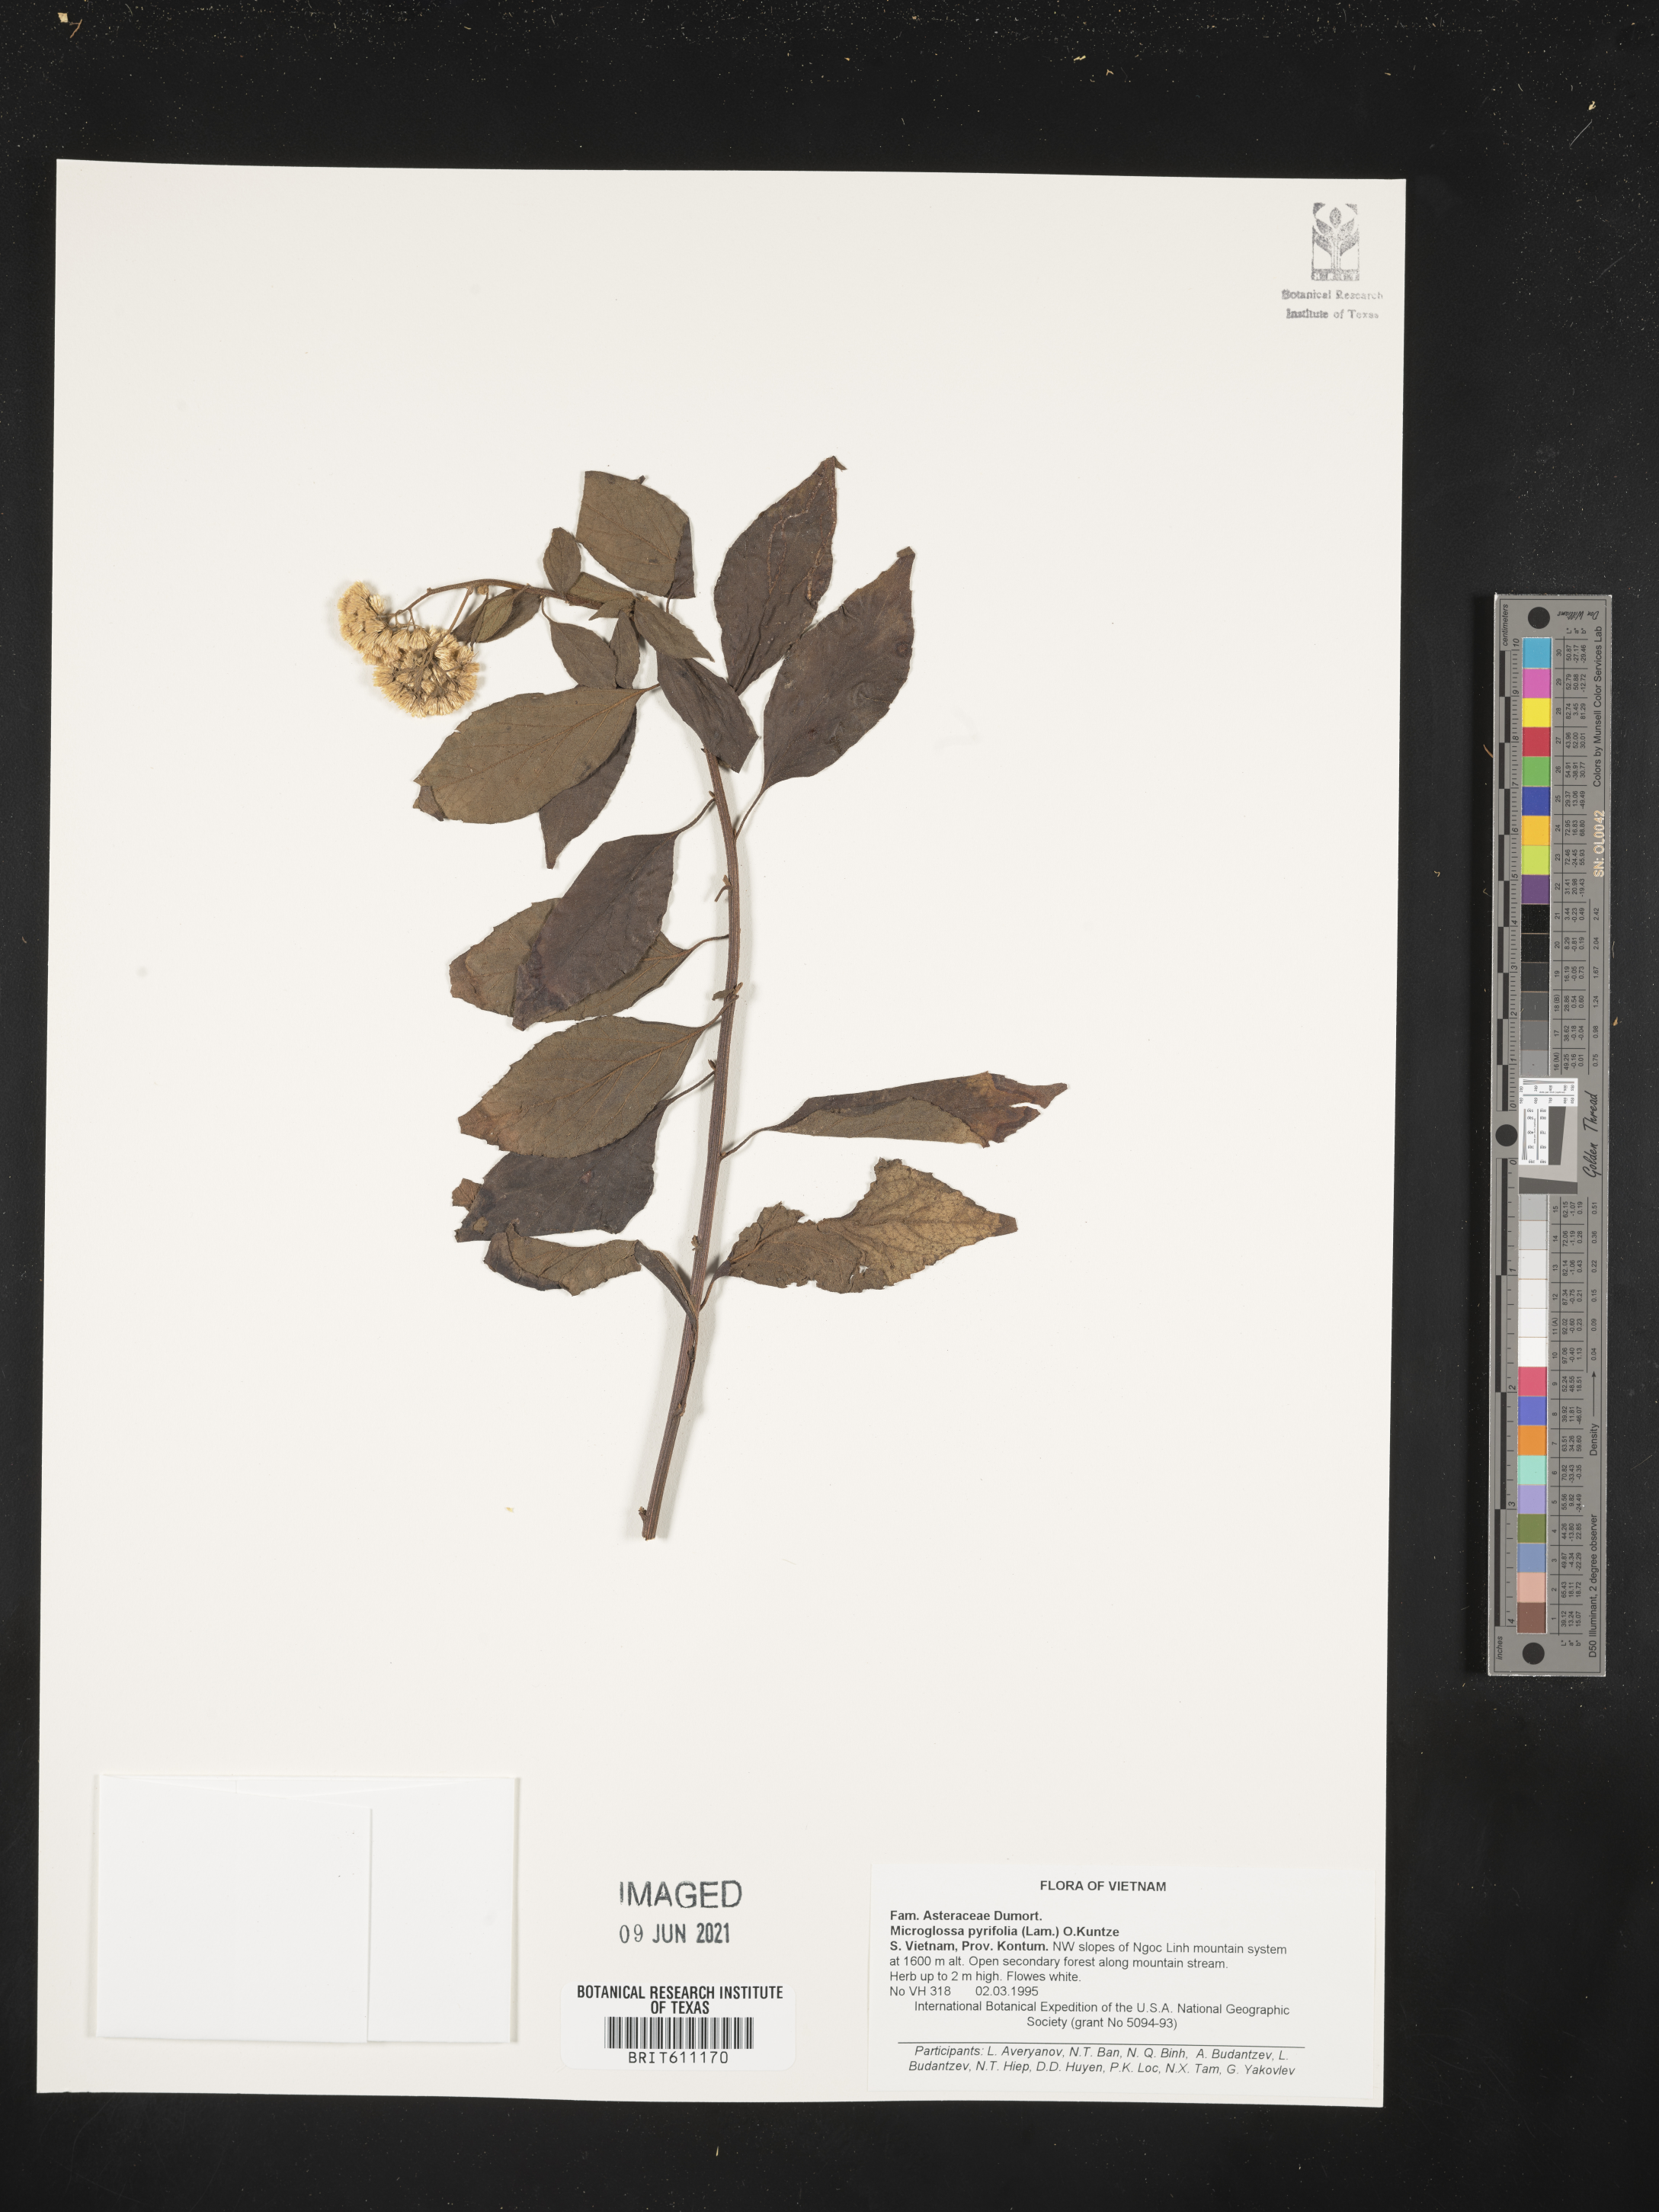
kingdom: Plantae
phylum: Tracheophyta
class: Magnoliopsida
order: Asterales
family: Asteraceae
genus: Microglossa
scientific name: Microglossa pyrifolia
